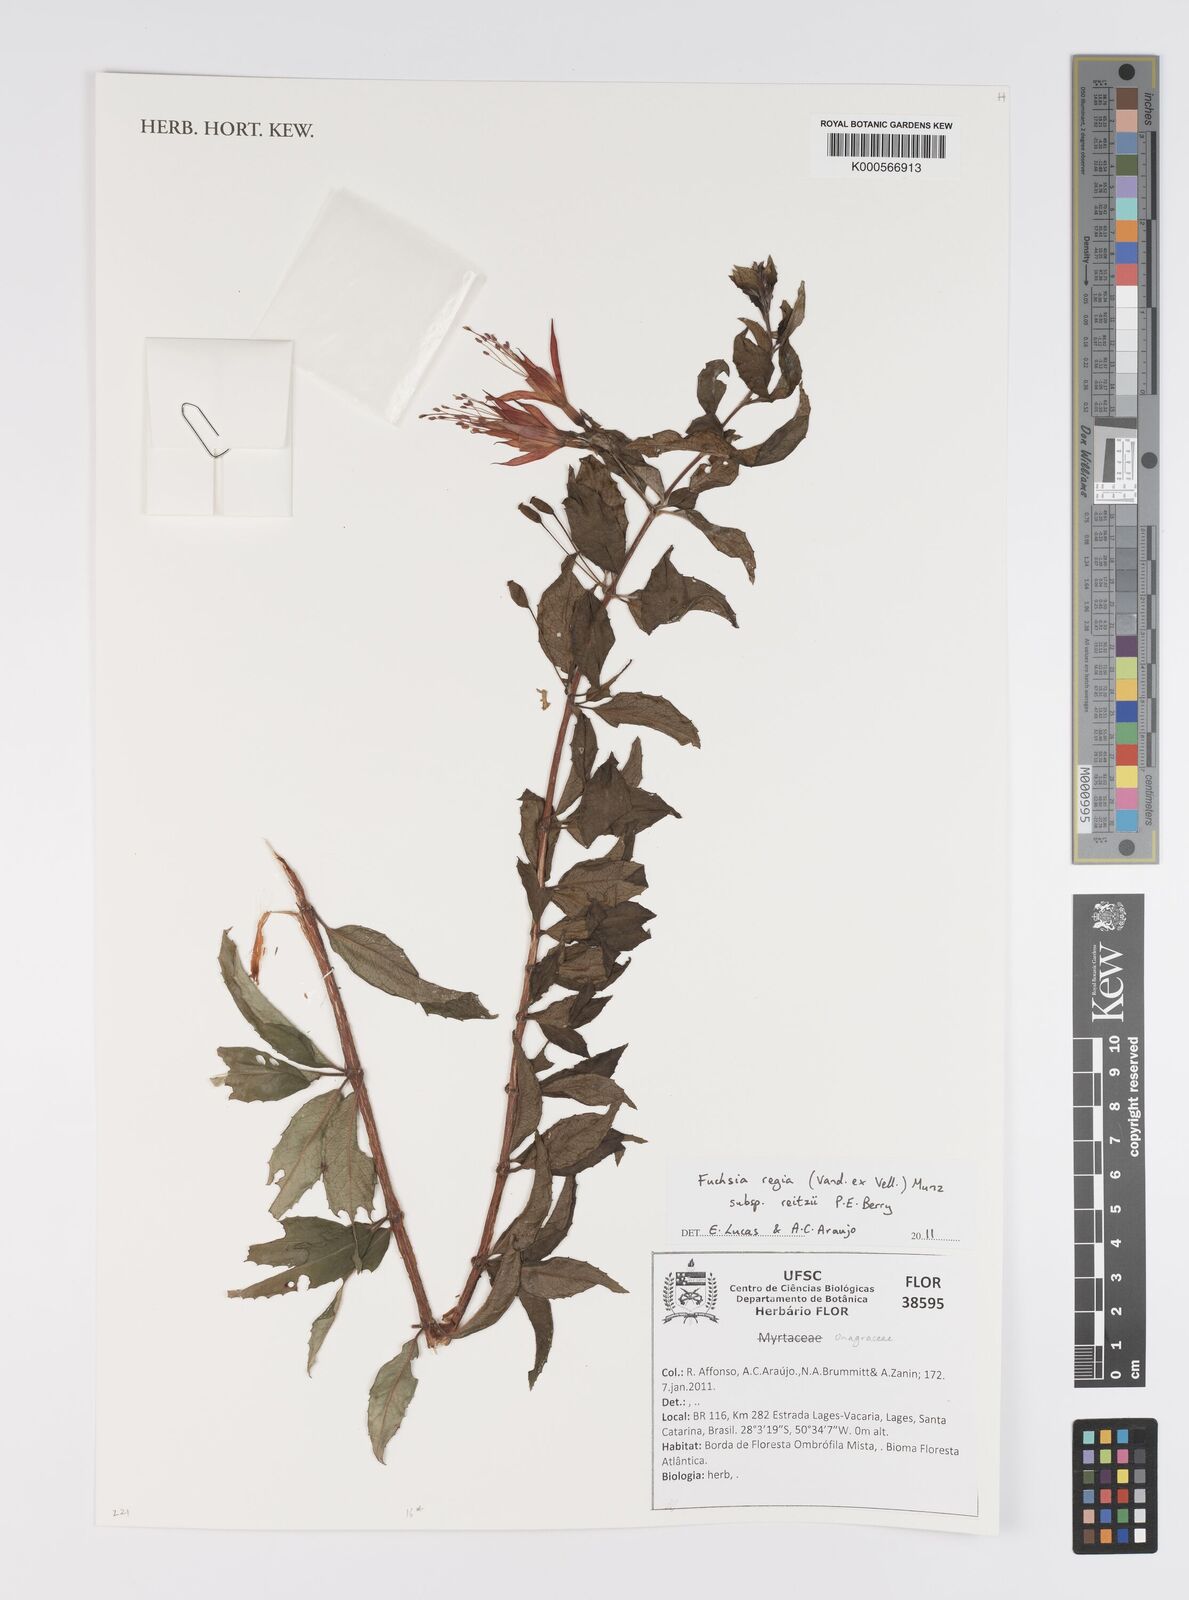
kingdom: Plantae
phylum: Tracheophyta
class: Magnoliopsida
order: Myrtales
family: Onagraceae
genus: Fuchsia
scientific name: Fuchsia regia
